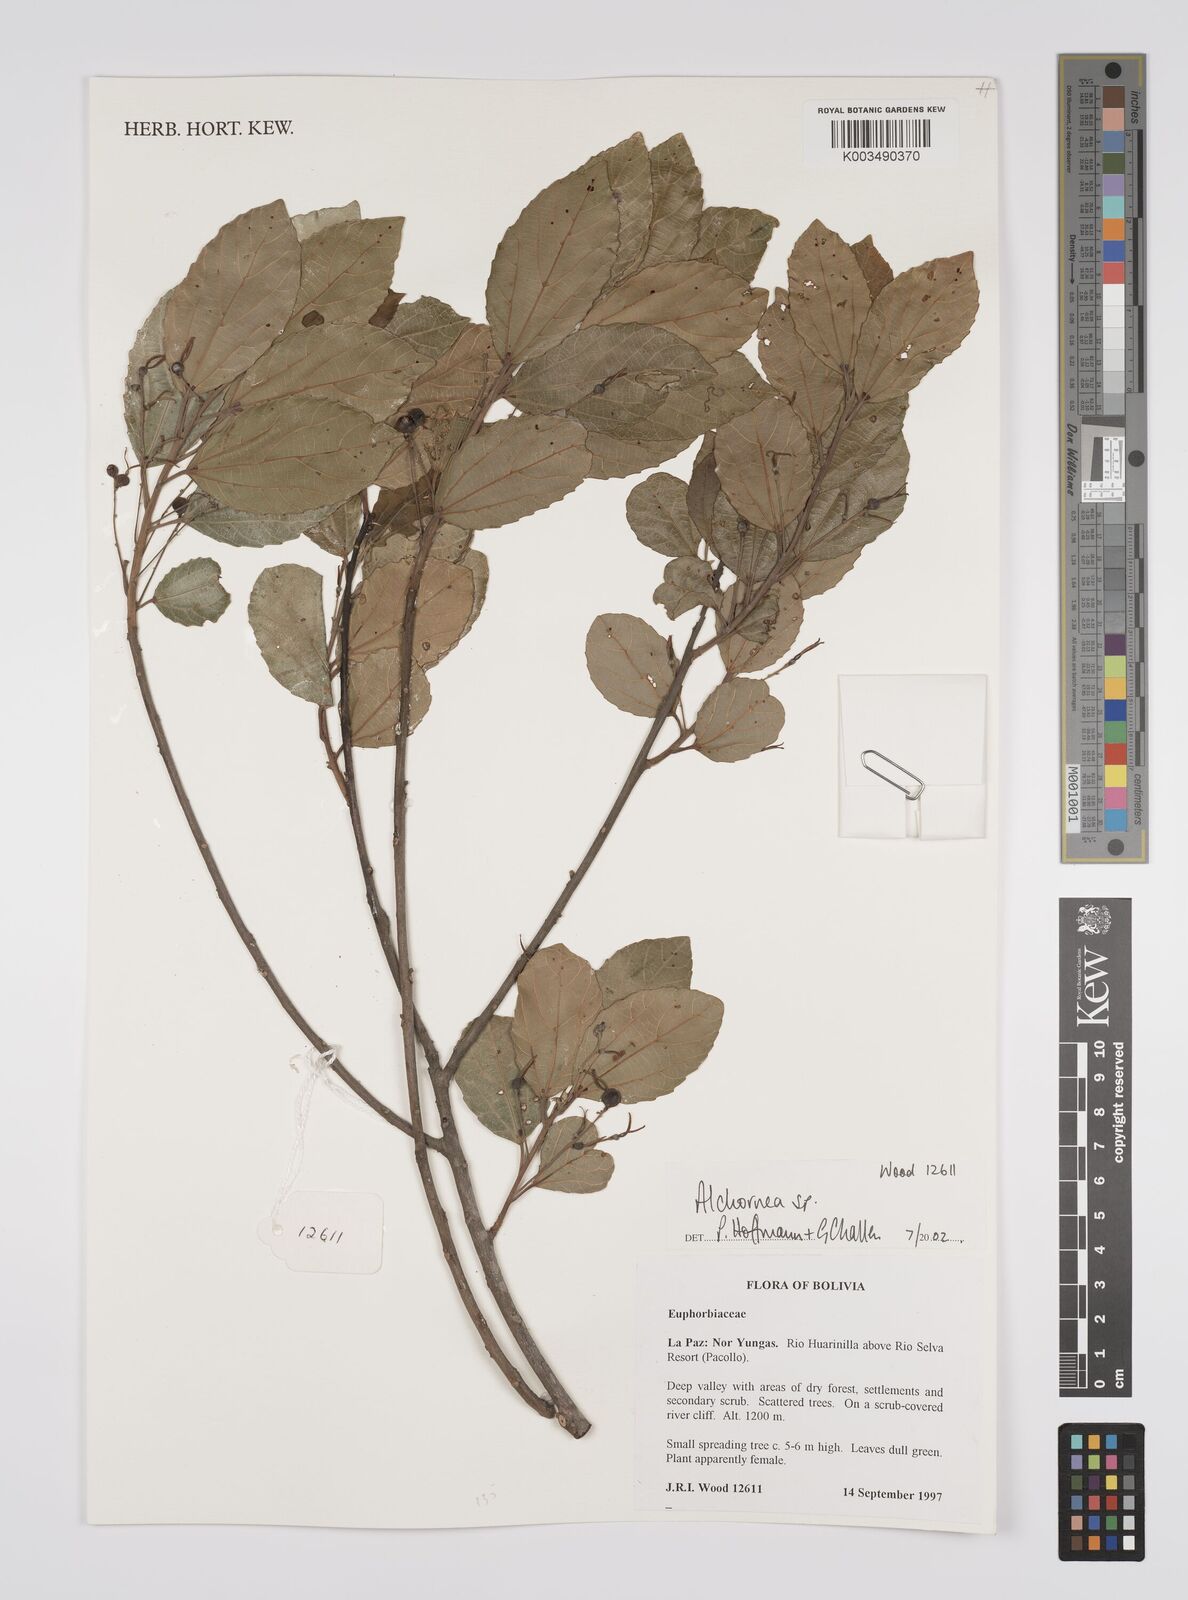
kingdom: Plantae
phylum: Tracheophyta
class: Magnoliopsida
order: Malpighiales
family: Euphorbiaceae
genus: Alchornea
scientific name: Alchornea
